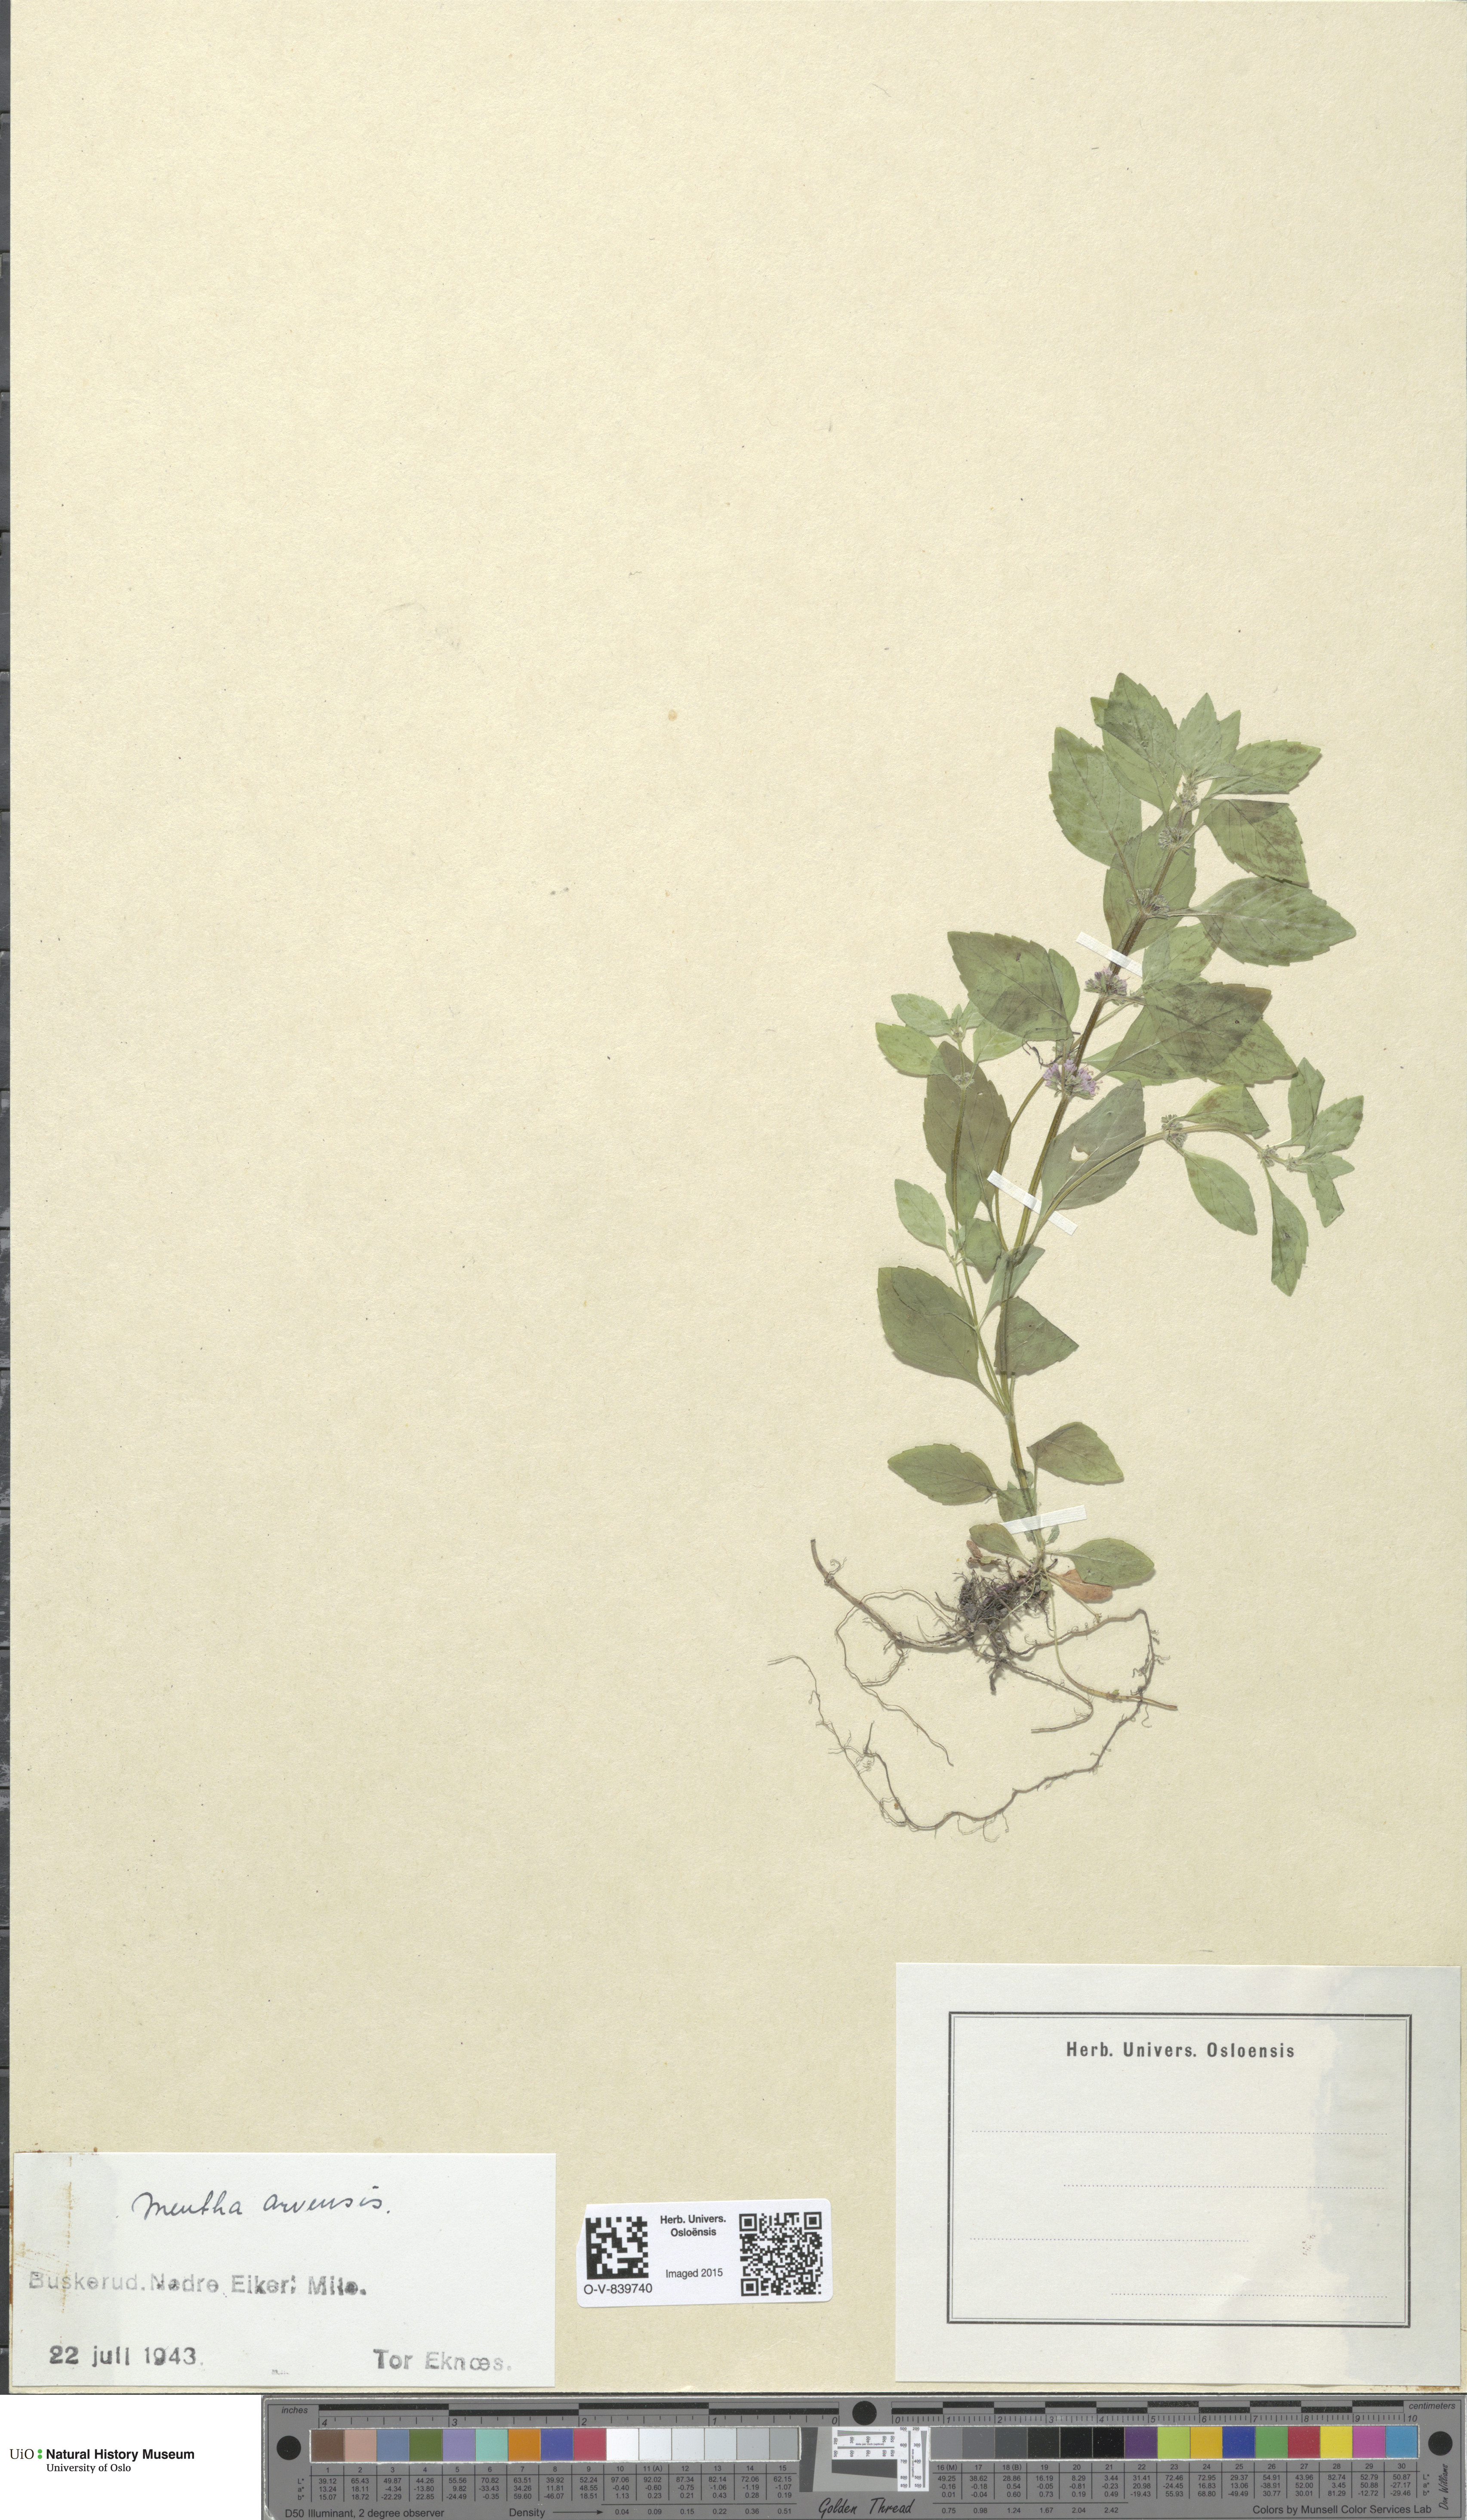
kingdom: Plantae
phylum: Tracheophyta
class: Magnoliopsida
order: Lamiales
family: Lamiaceae
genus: Mentha
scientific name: Mentha arvensis
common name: Corn mint
